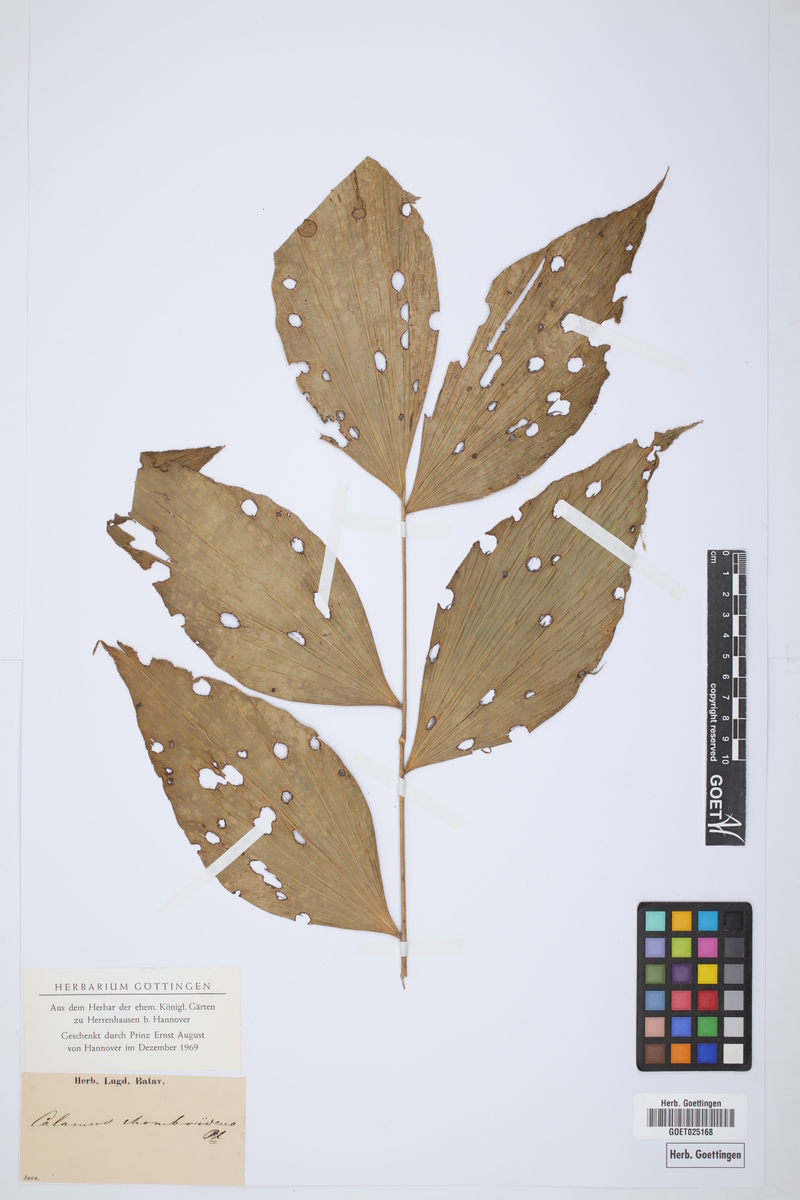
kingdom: Plantae
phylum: Tracheophyta
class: Liliopsida
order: Arecales
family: Arecaceae
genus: Calamus
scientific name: Calamus rhomboideus
